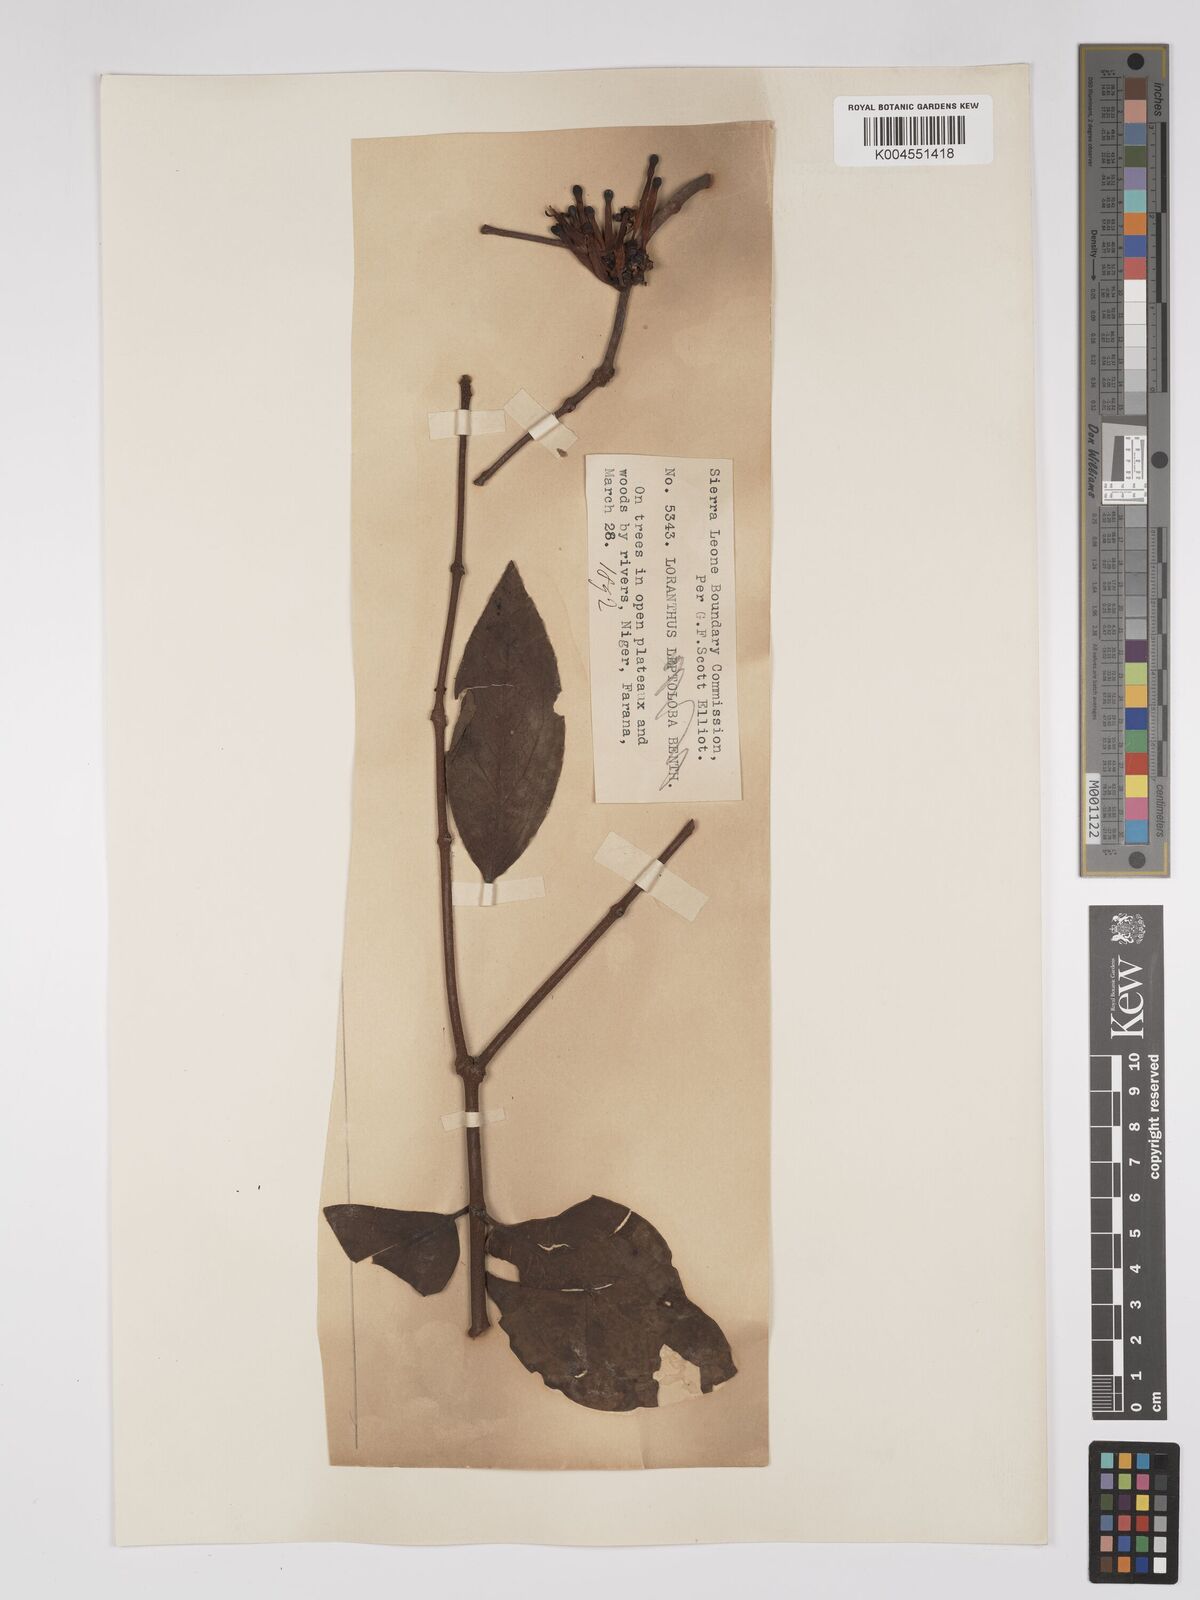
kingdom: Plantae
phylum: Tracheophyta
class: Magnoliopsida
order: Santalales
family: Loranthaceae
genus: Tapinanthus
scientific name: Tapinanthus bangwensis
